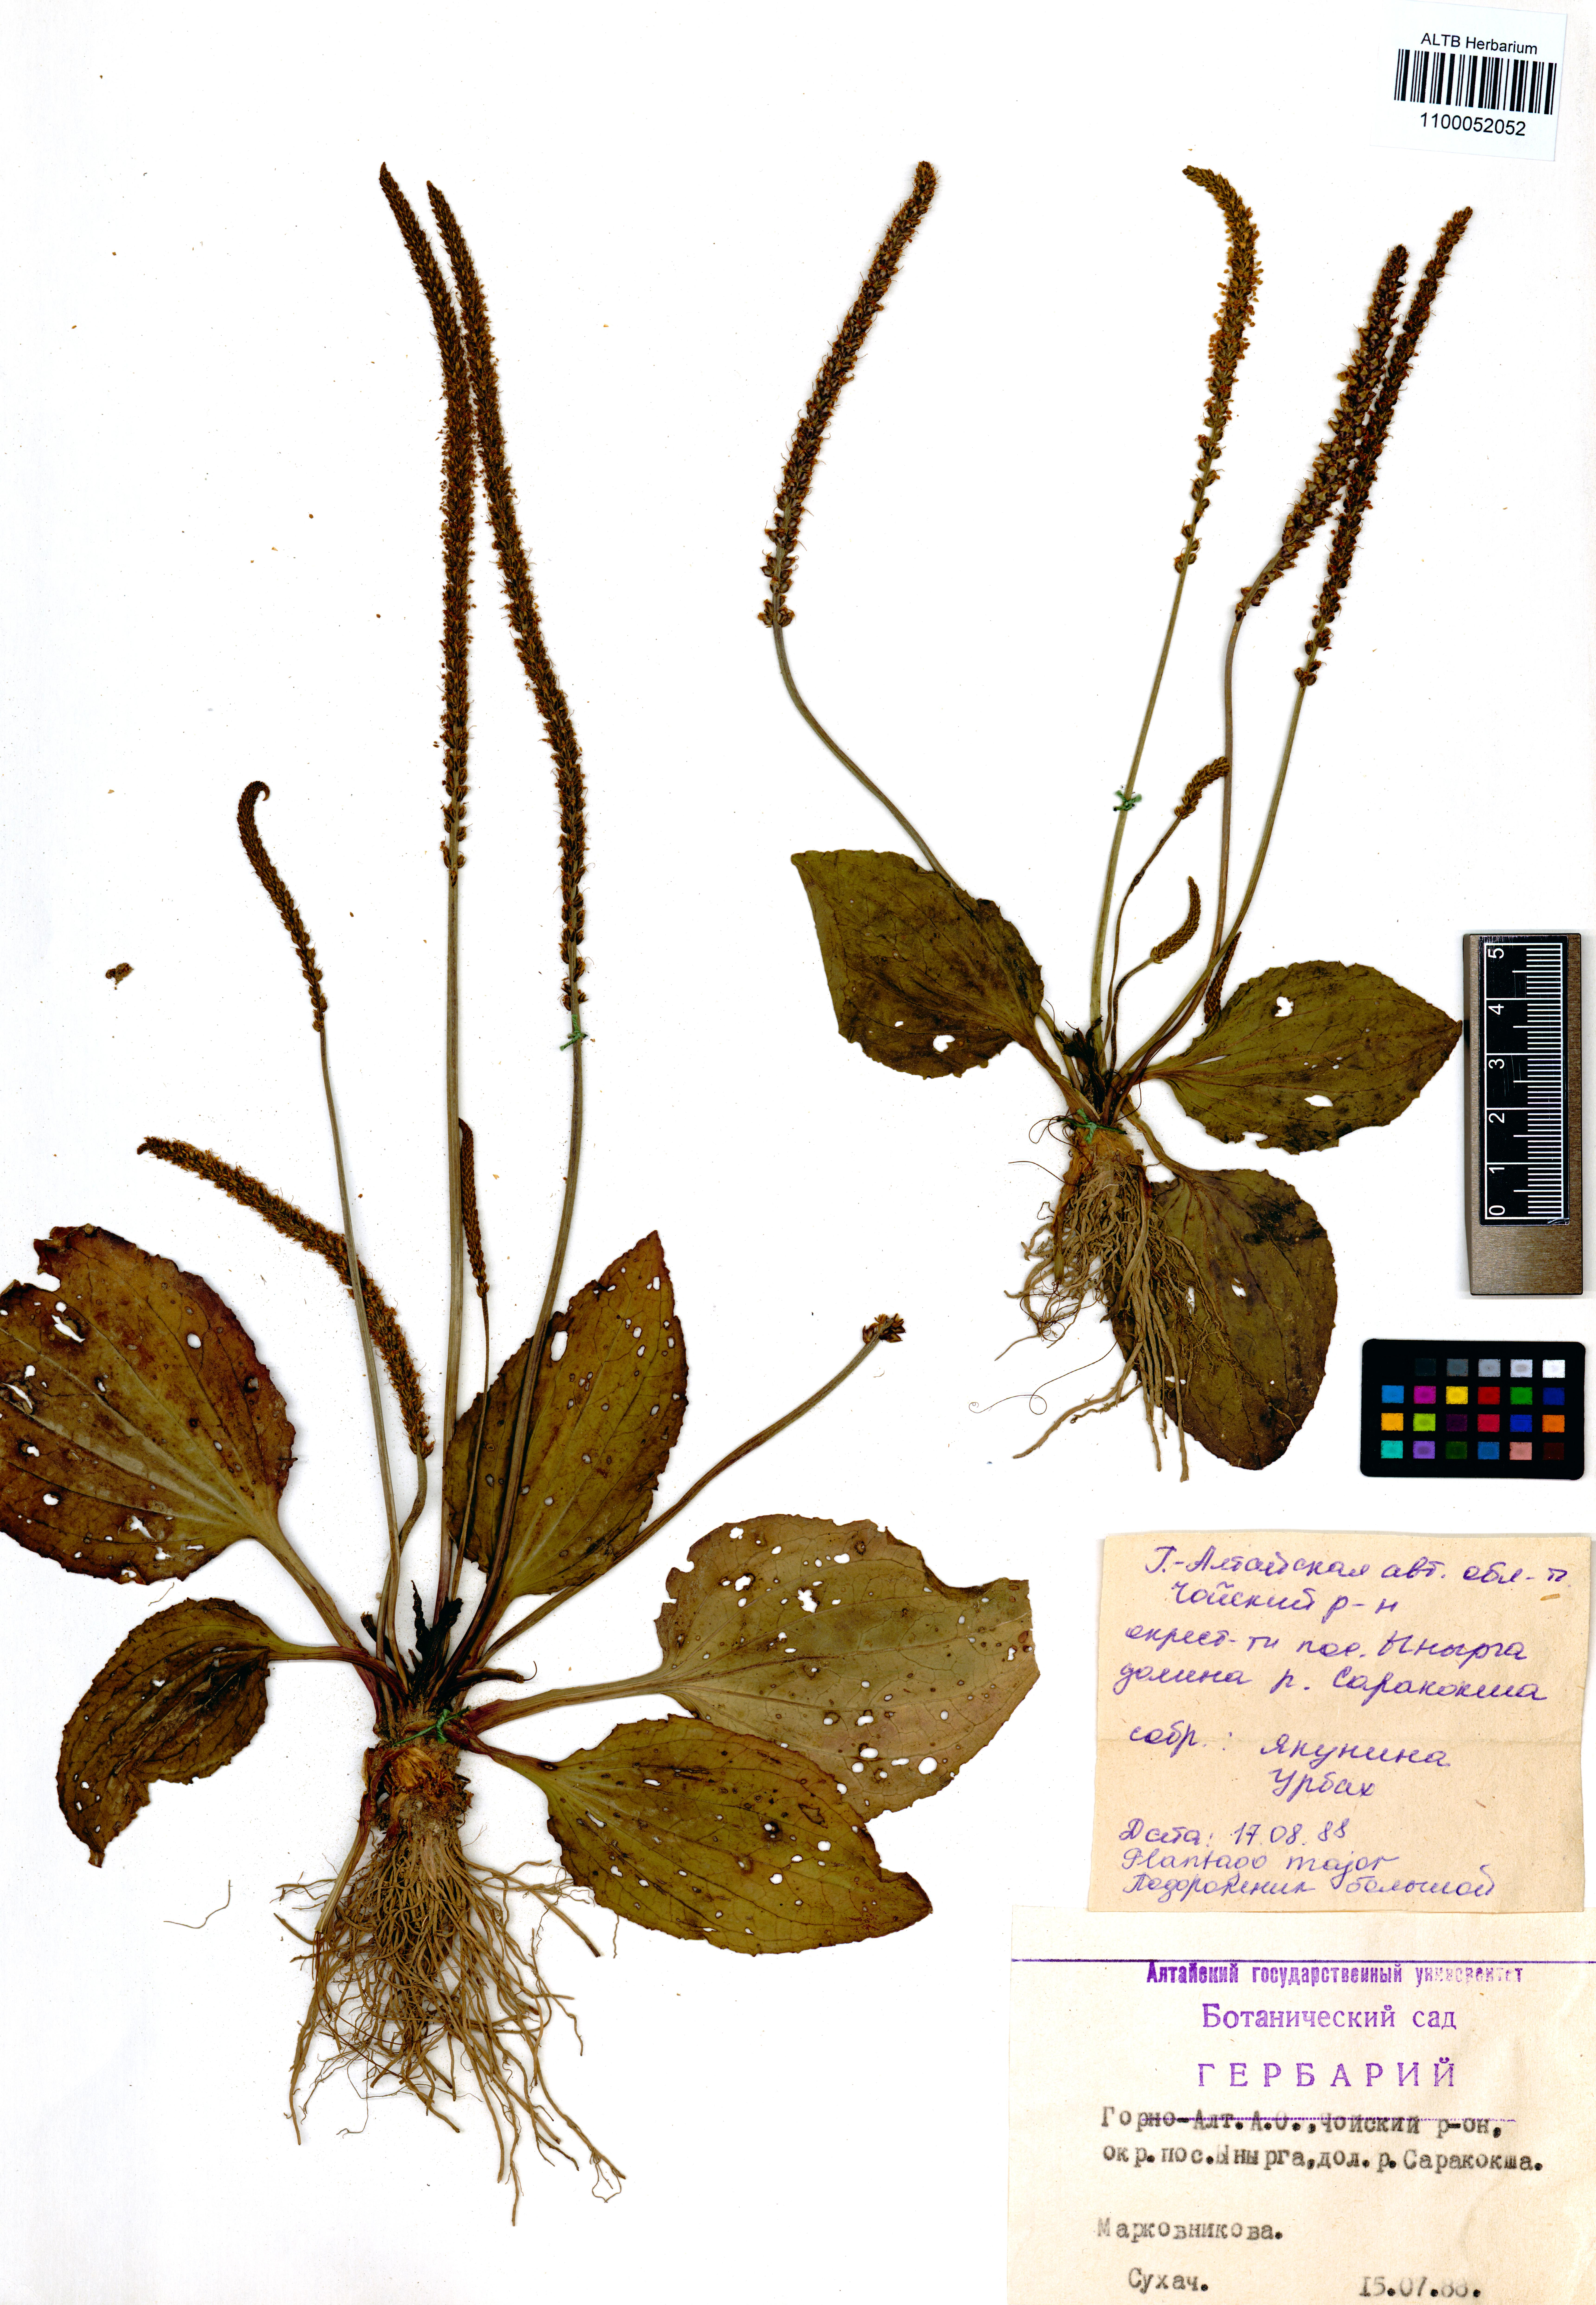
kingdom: Plantae
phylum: Tracheophyta
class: Magnoliopsida
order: Lamiales
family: Plantaginaceae
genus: Plantago
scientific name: Plantago major
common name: Common plantain
